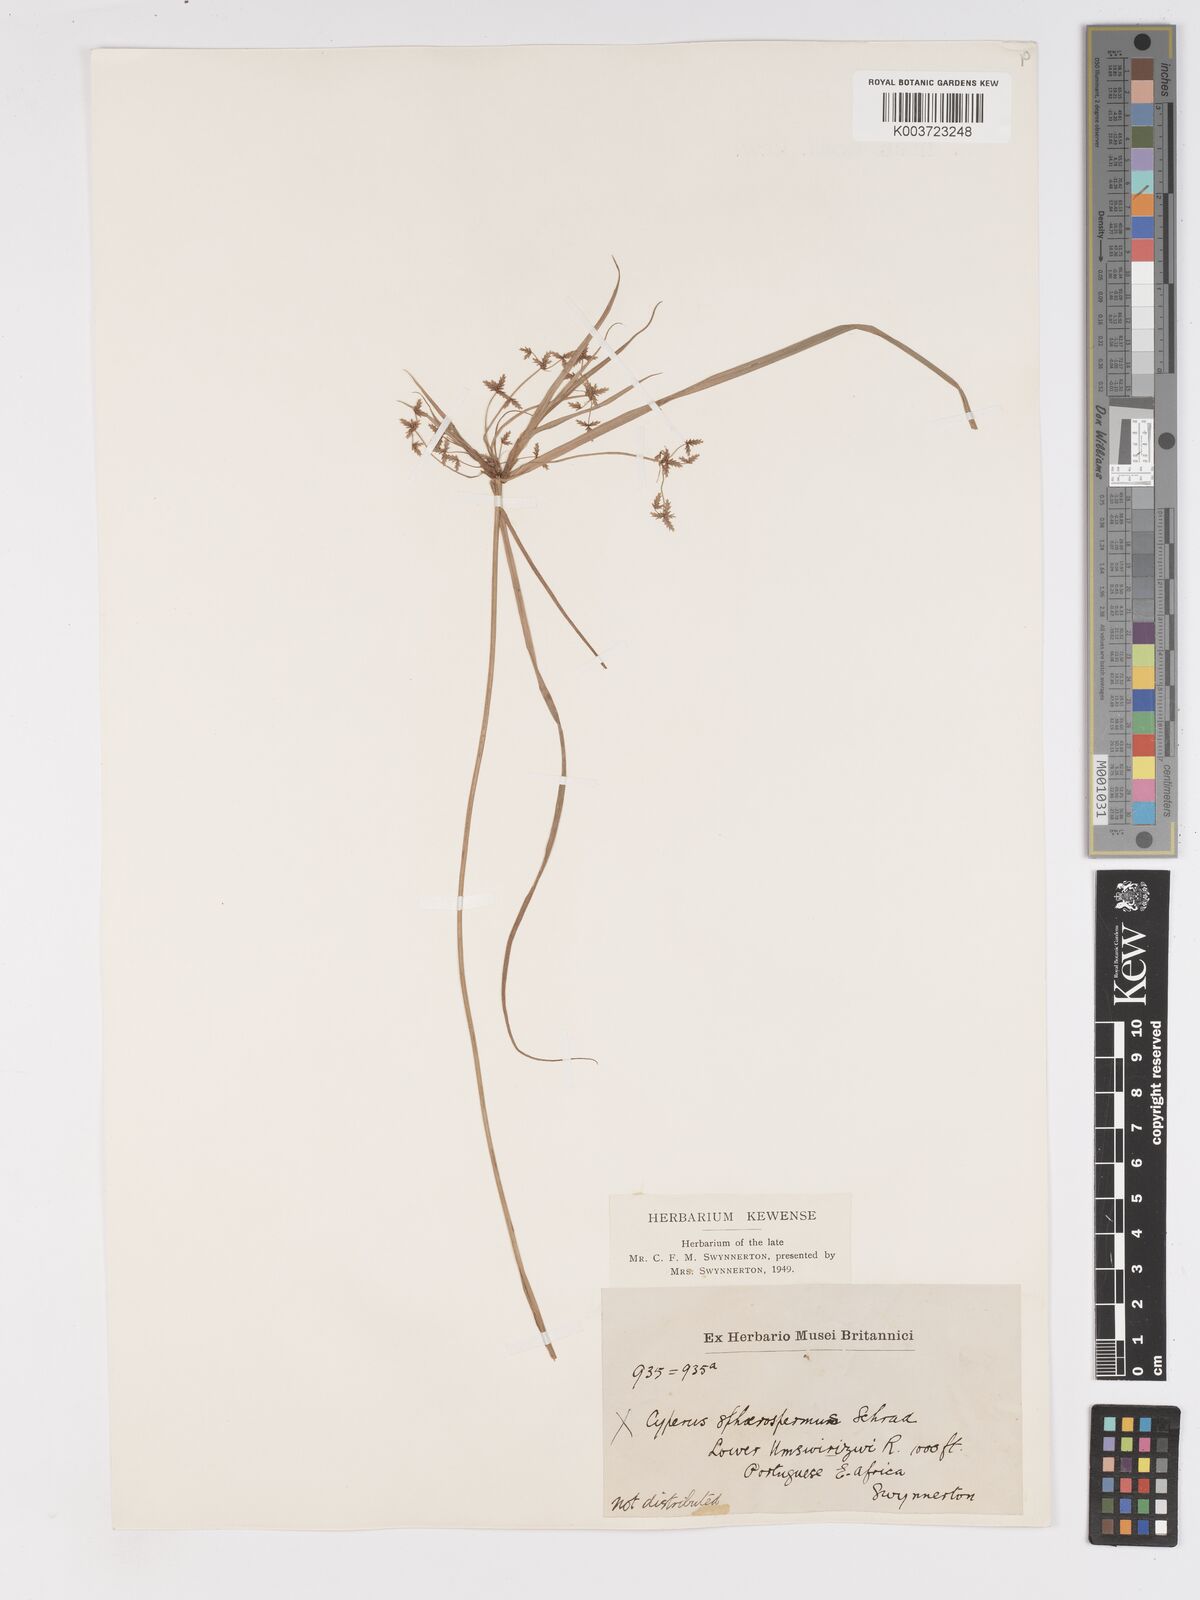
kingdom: Plantae
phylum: Tracheophyta
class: Liliopsida
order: Poales
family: Cyperaceae
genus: Cyperus
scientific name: Cyperus denudatus
